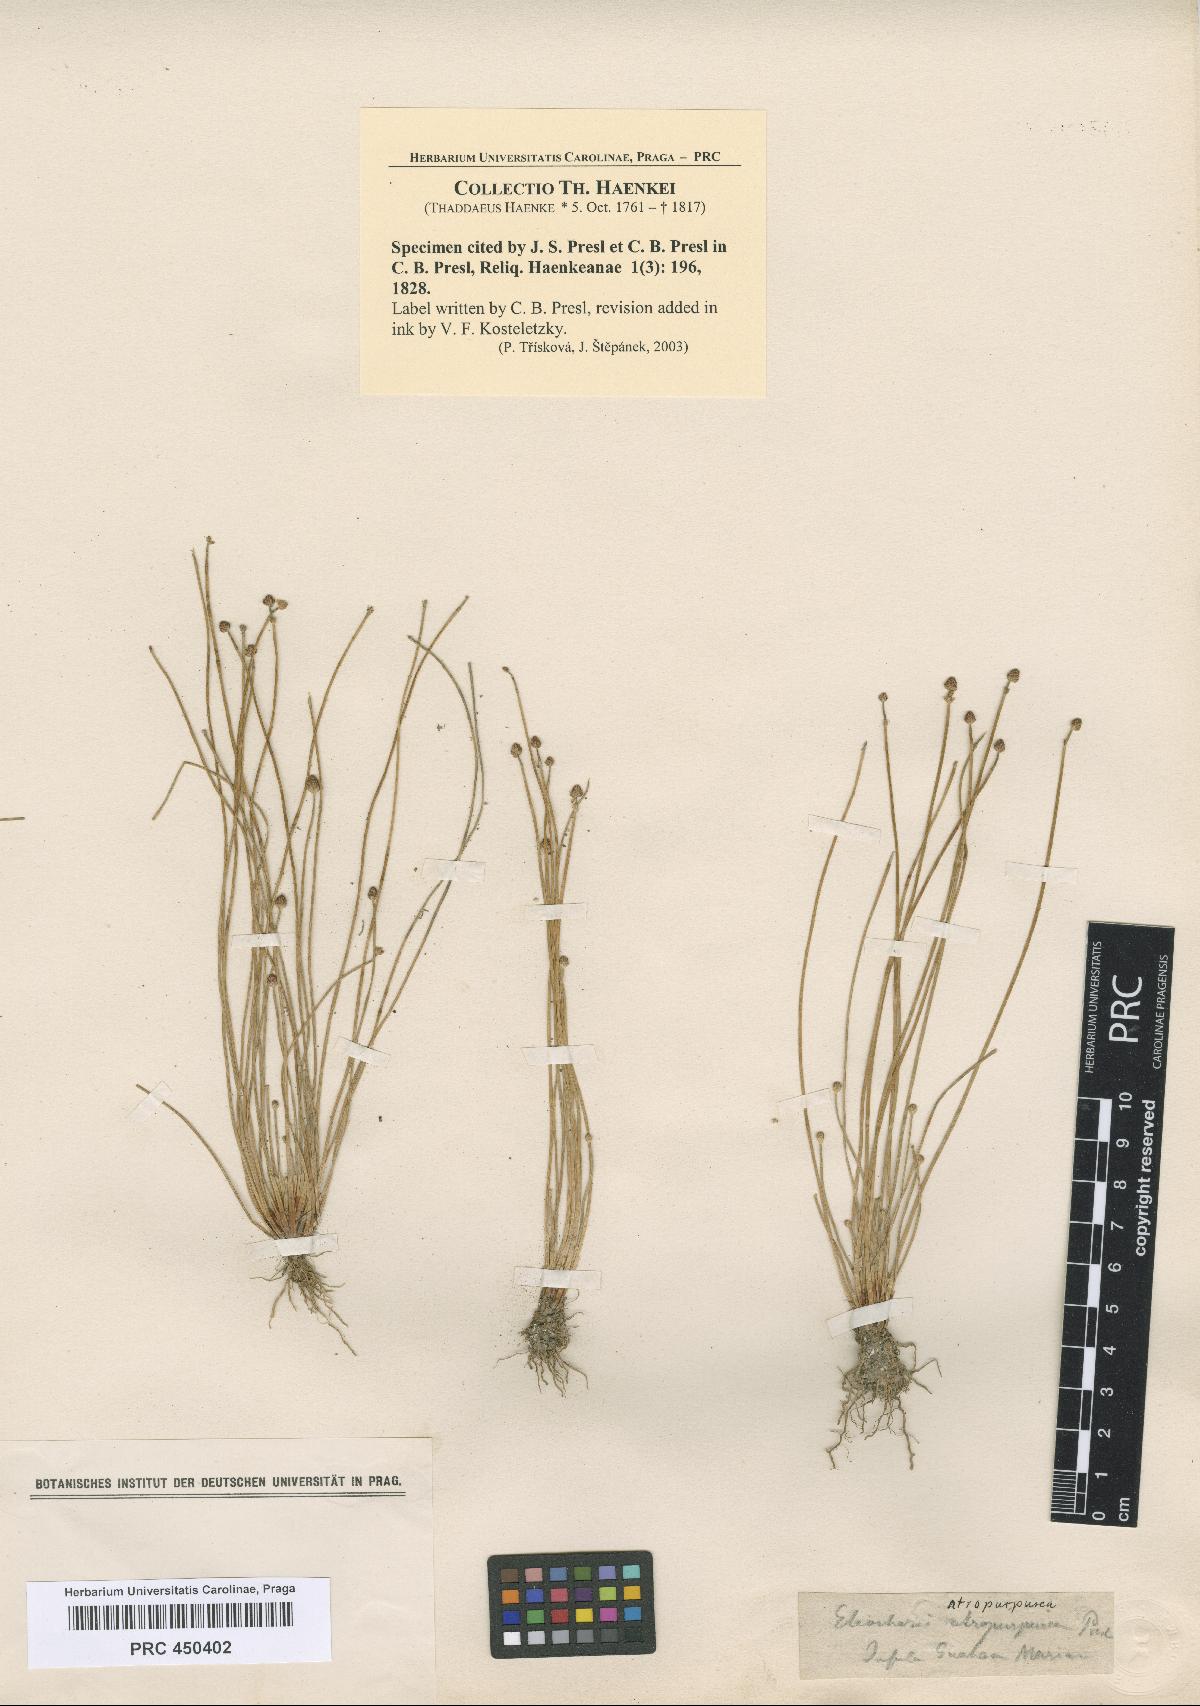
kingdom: Plantae
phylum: Tracheophyta
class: Liliopsida
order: Poales
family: Cyperaceae
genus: Eleocharis
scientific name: Eleocharis atropurpurea
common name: Purple spikerush
